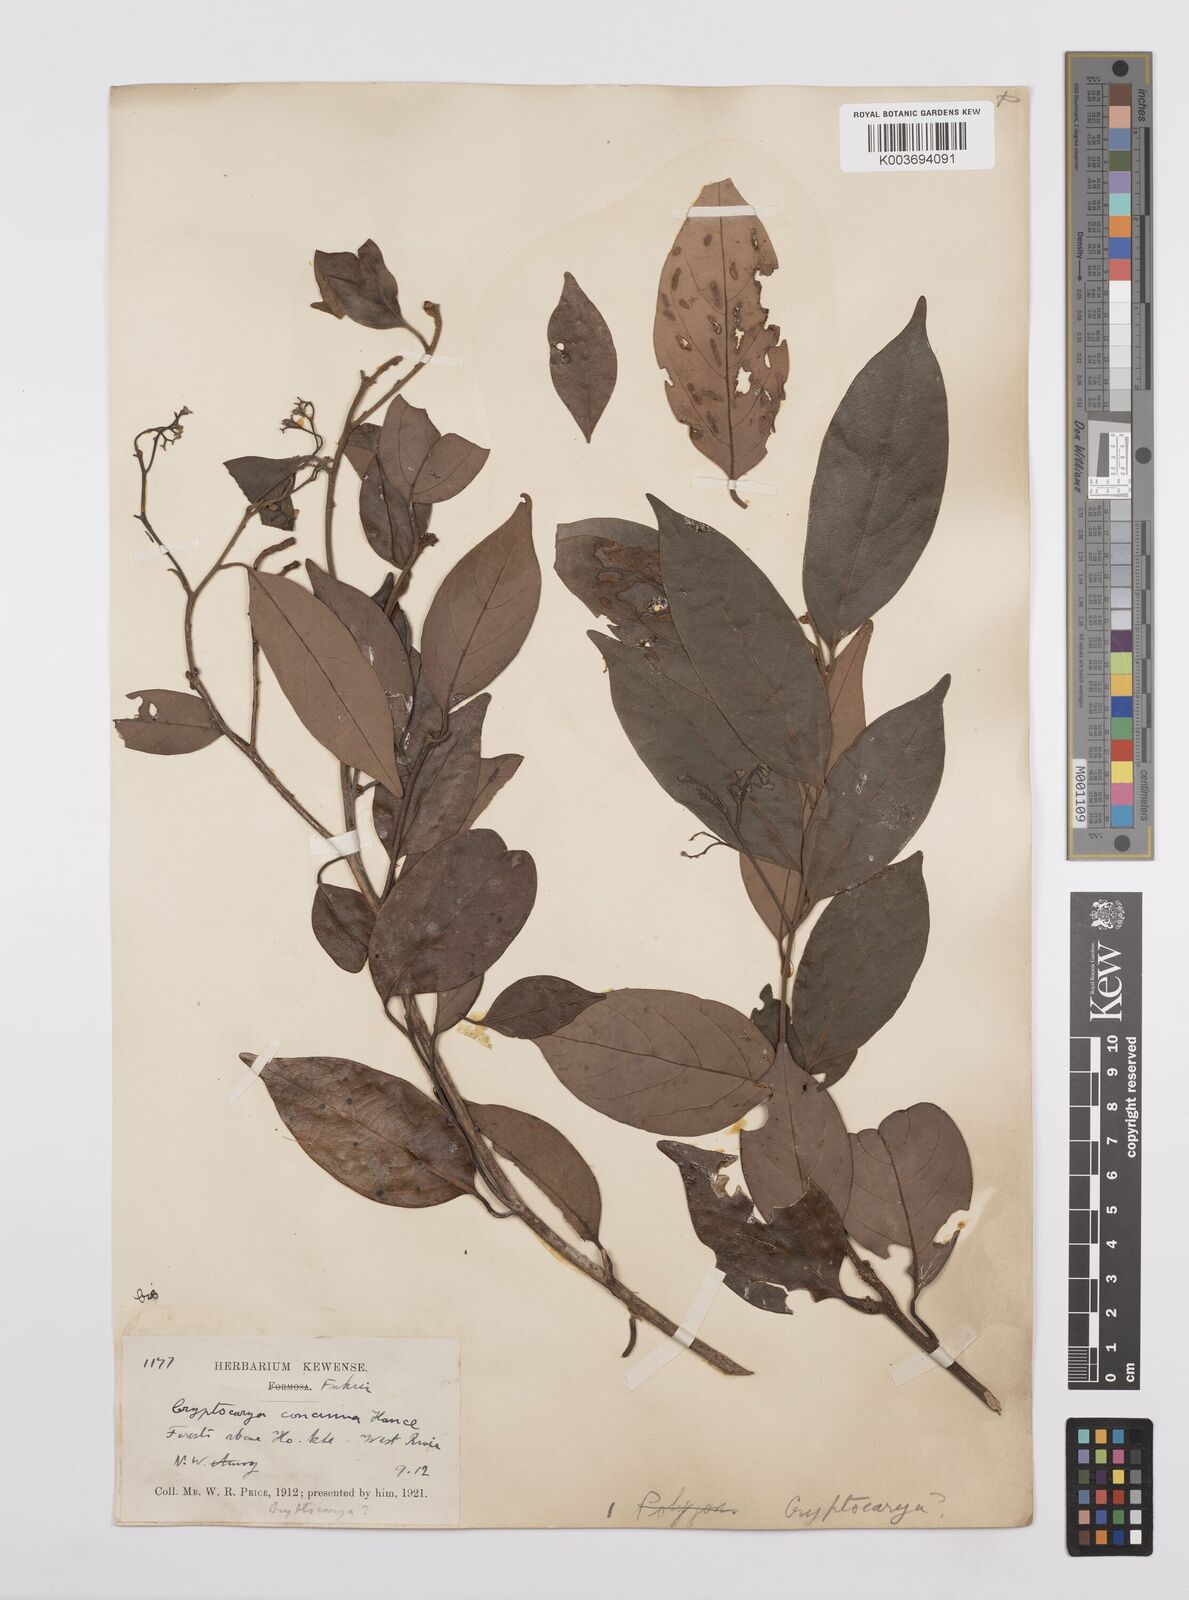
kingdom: Plantae
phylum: Tracheophyta
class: Magnoliopsida
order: Laurales
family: Lauraceae
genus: Cryptocarya
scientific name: Cryptocarya concinna
